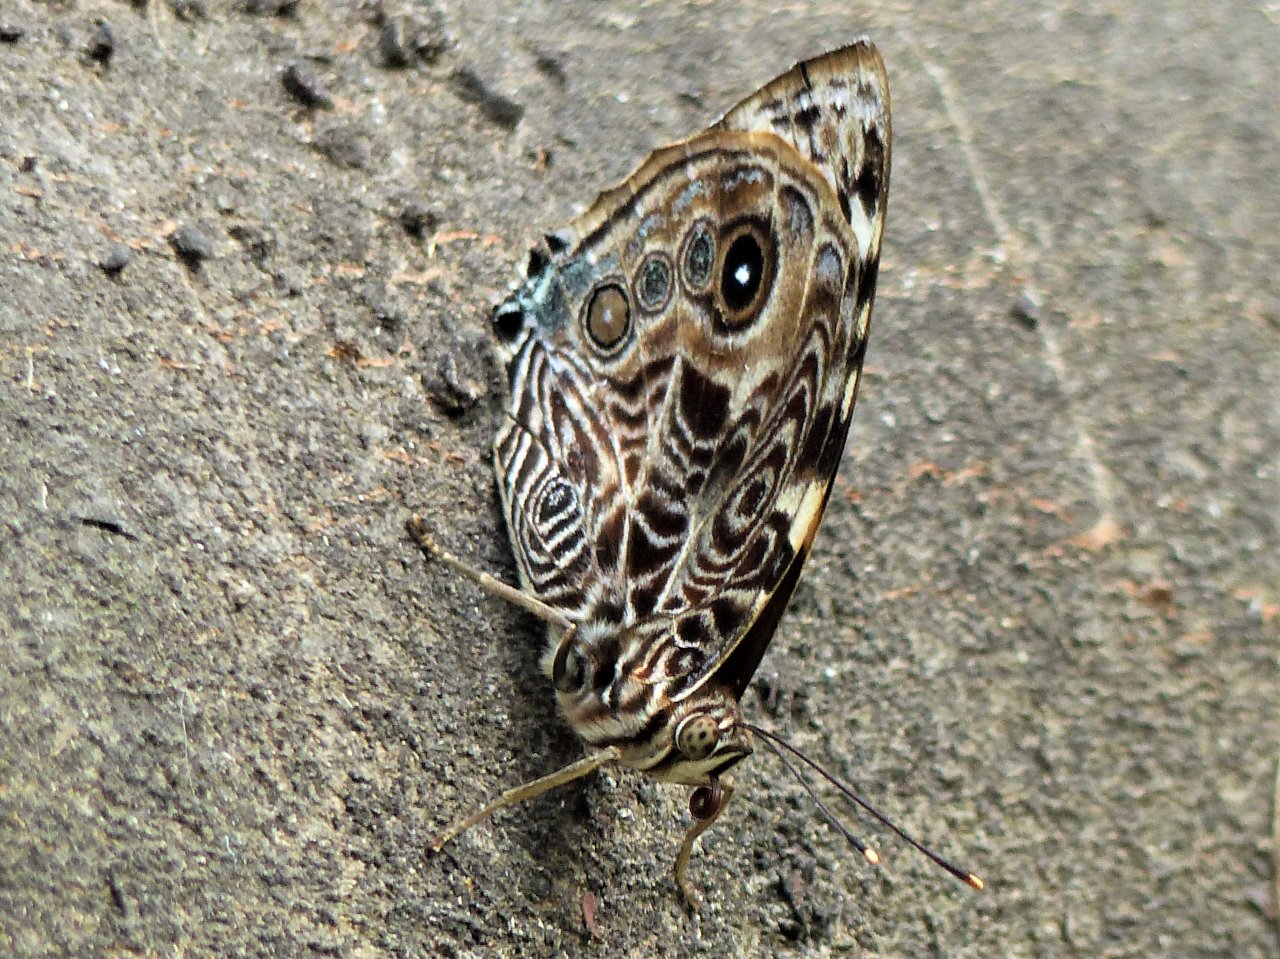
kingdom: Animalia
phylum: Arthropoda
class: Insecta
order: Lepidoptera
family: Nymphalidae
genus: Smyrna
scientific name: Smyrna blomfildia
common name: Blomfild's Beauty
